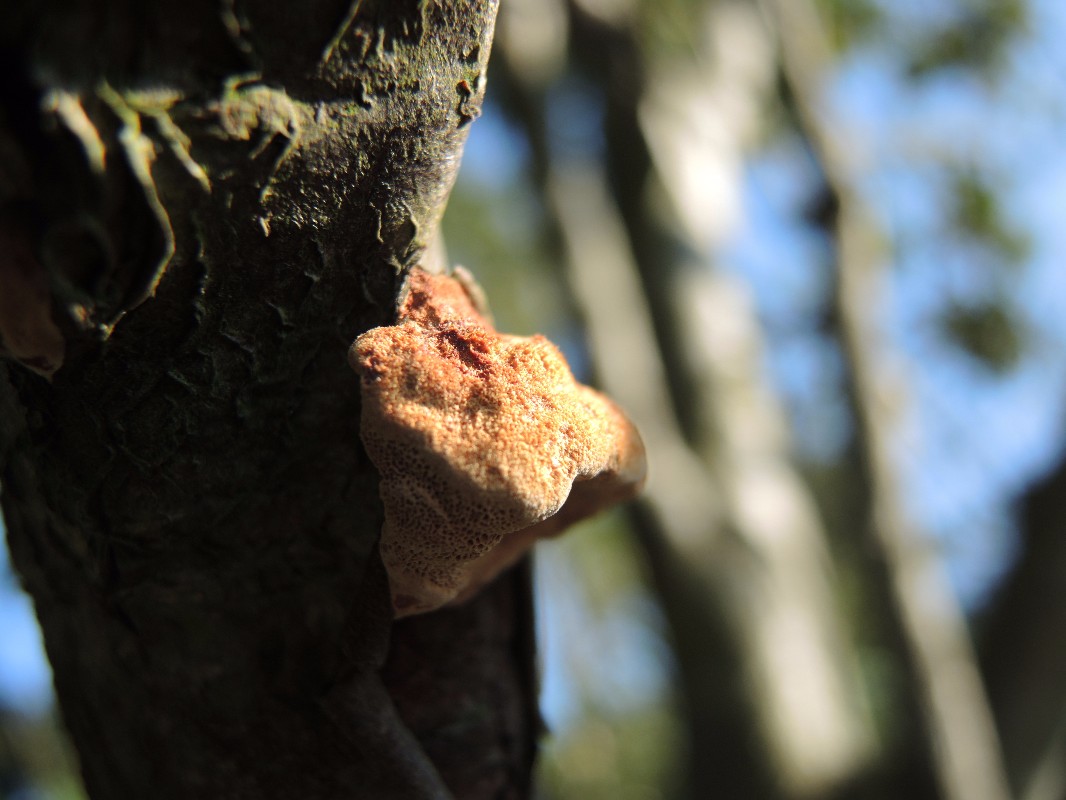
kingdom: Fungi
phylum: Basidiomycota
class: Agaricomycetes
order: Polyporales
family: Phanerochaetaceae
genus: Hapalopilus
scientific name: Hapalopilus rutilans
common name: rødlig okkerporesvamp
